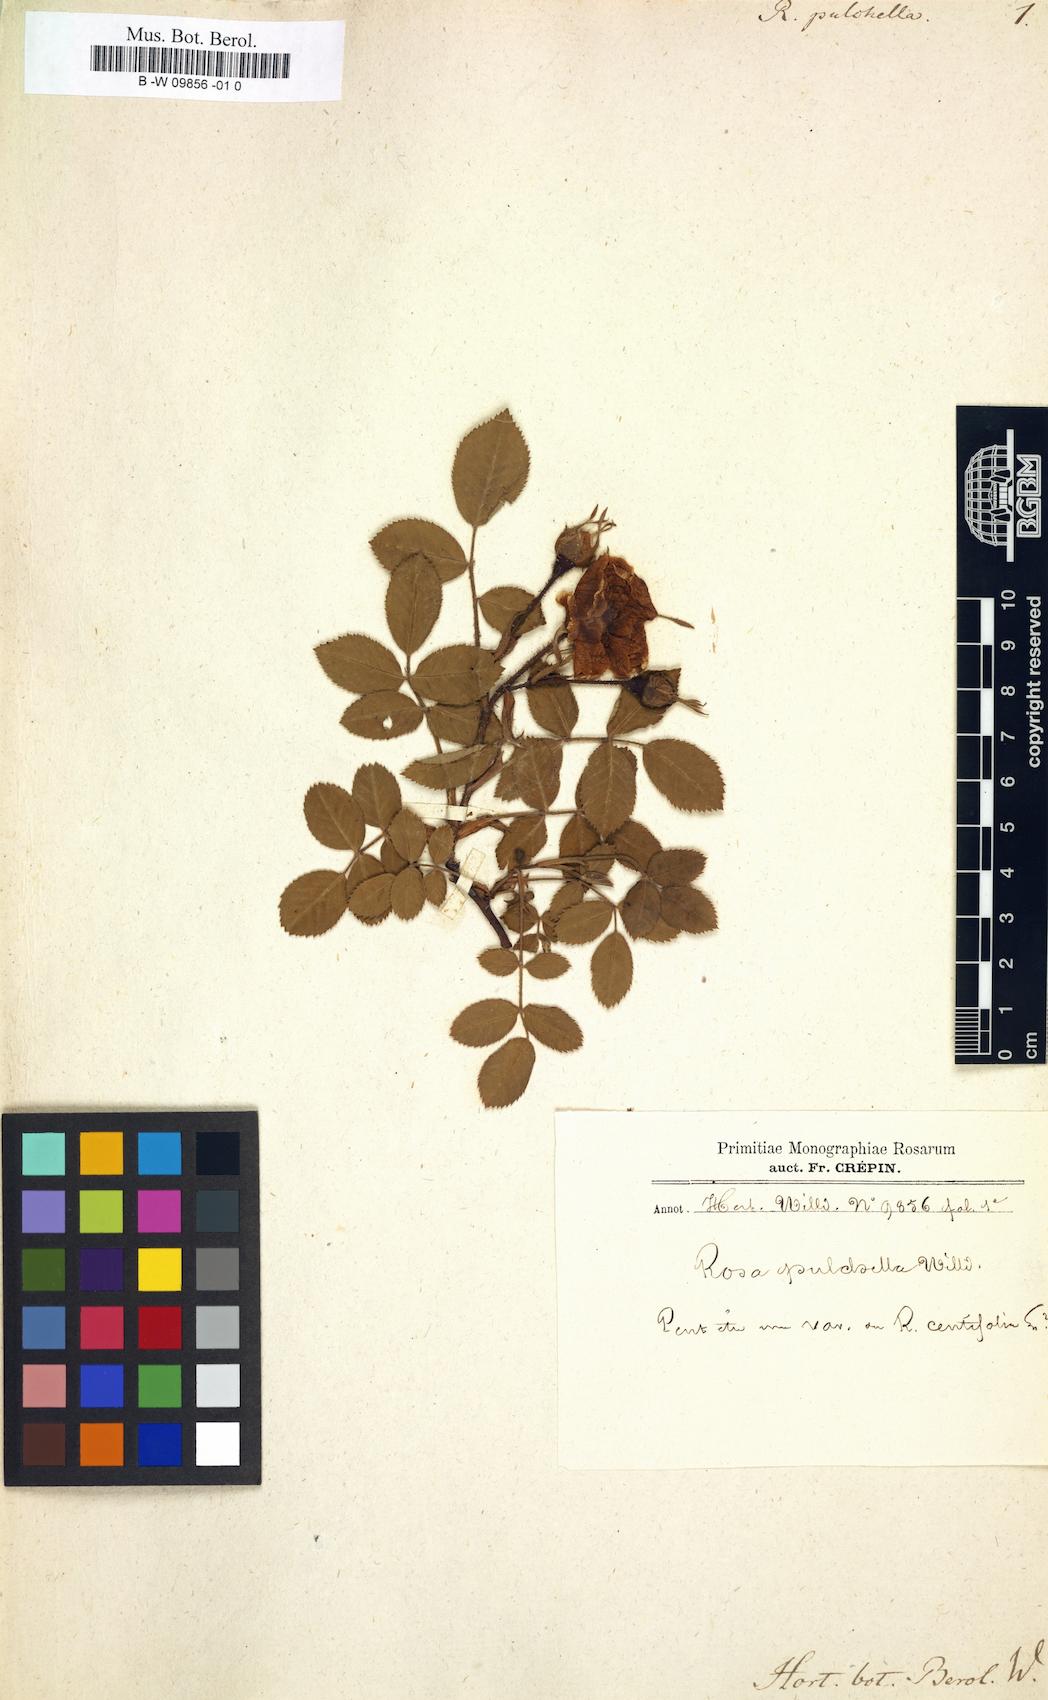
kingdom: Plantae
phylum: Tracheophyta
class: Magnoliopsida
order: Rosales
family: Rosaceae
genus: Rosa
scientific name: Rosa
